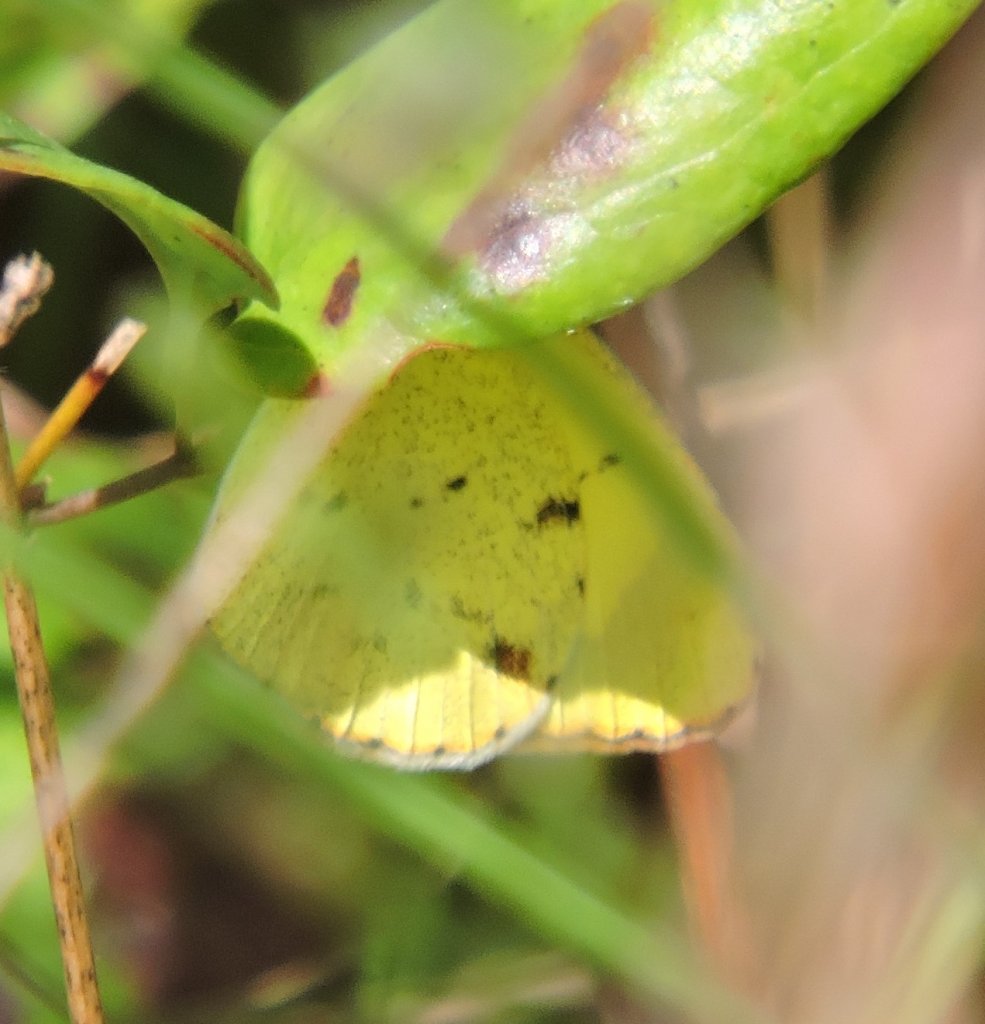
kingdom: Animalia
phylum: Arthropoda
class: Insecta
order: Lepidoptera
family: Pieridae
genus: Pyrisitia
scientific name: Pyrisitia lisa
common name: Little Yellow
